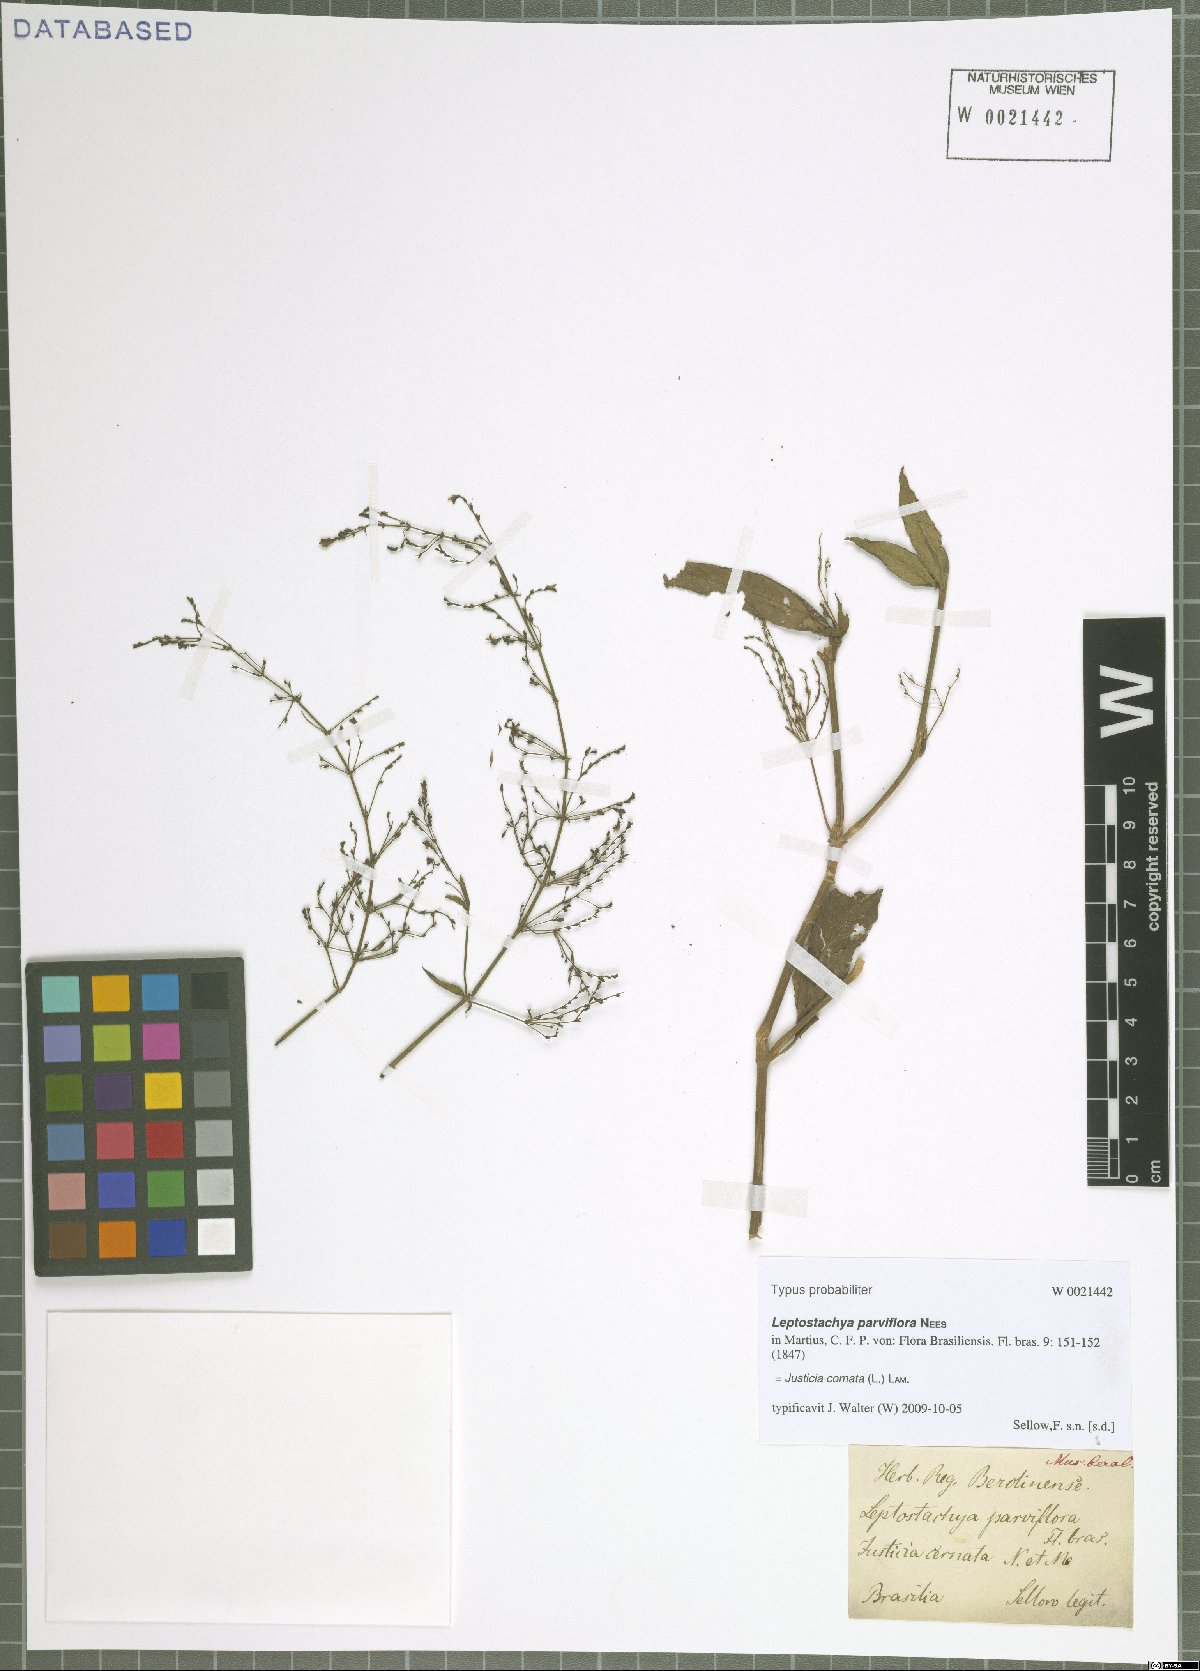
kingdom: Plantae
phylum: Tracheophyta
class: Magnoliopsida
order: Lamiales
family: Acanthaceae
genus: Dianthera
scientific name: Dianthera comata
